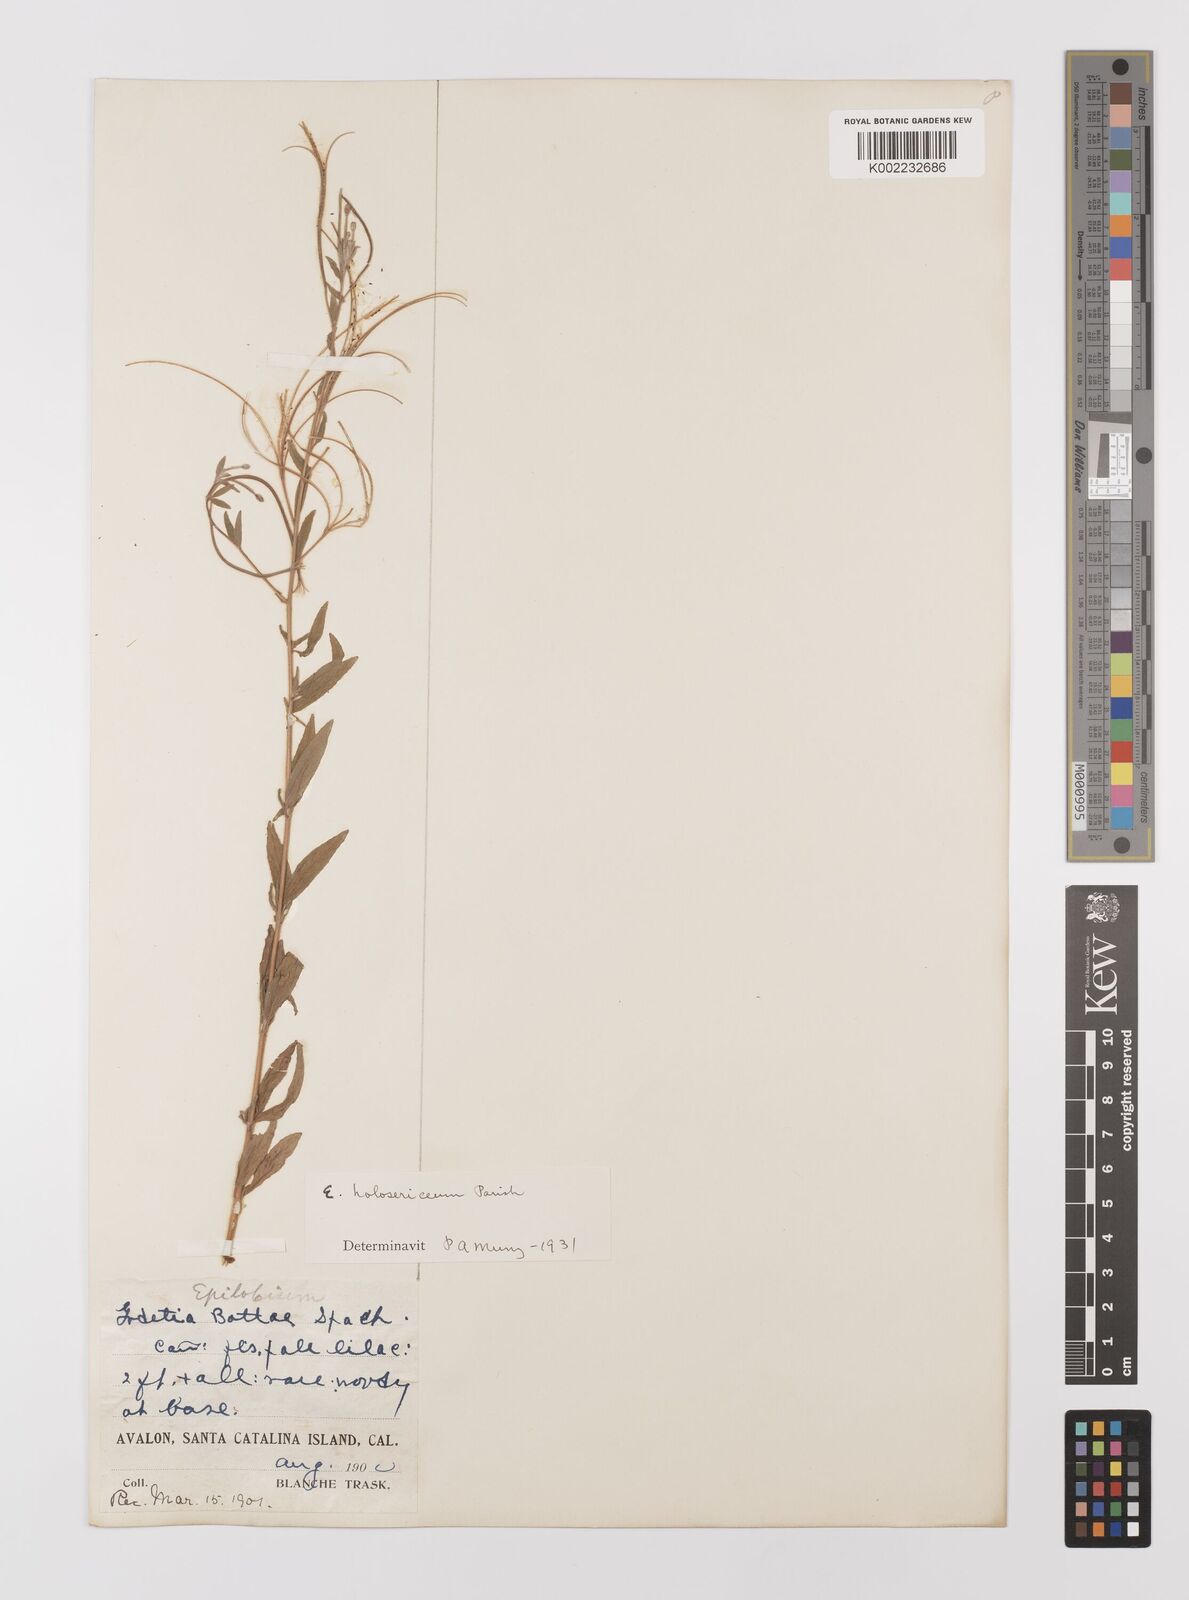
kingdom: Plantae
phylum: Tracheophyta
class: Magnoliopsida
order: Myrtales
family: Onagraceae
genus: Epilobium
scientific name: Epilobium ciliatum
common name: American willowherb
